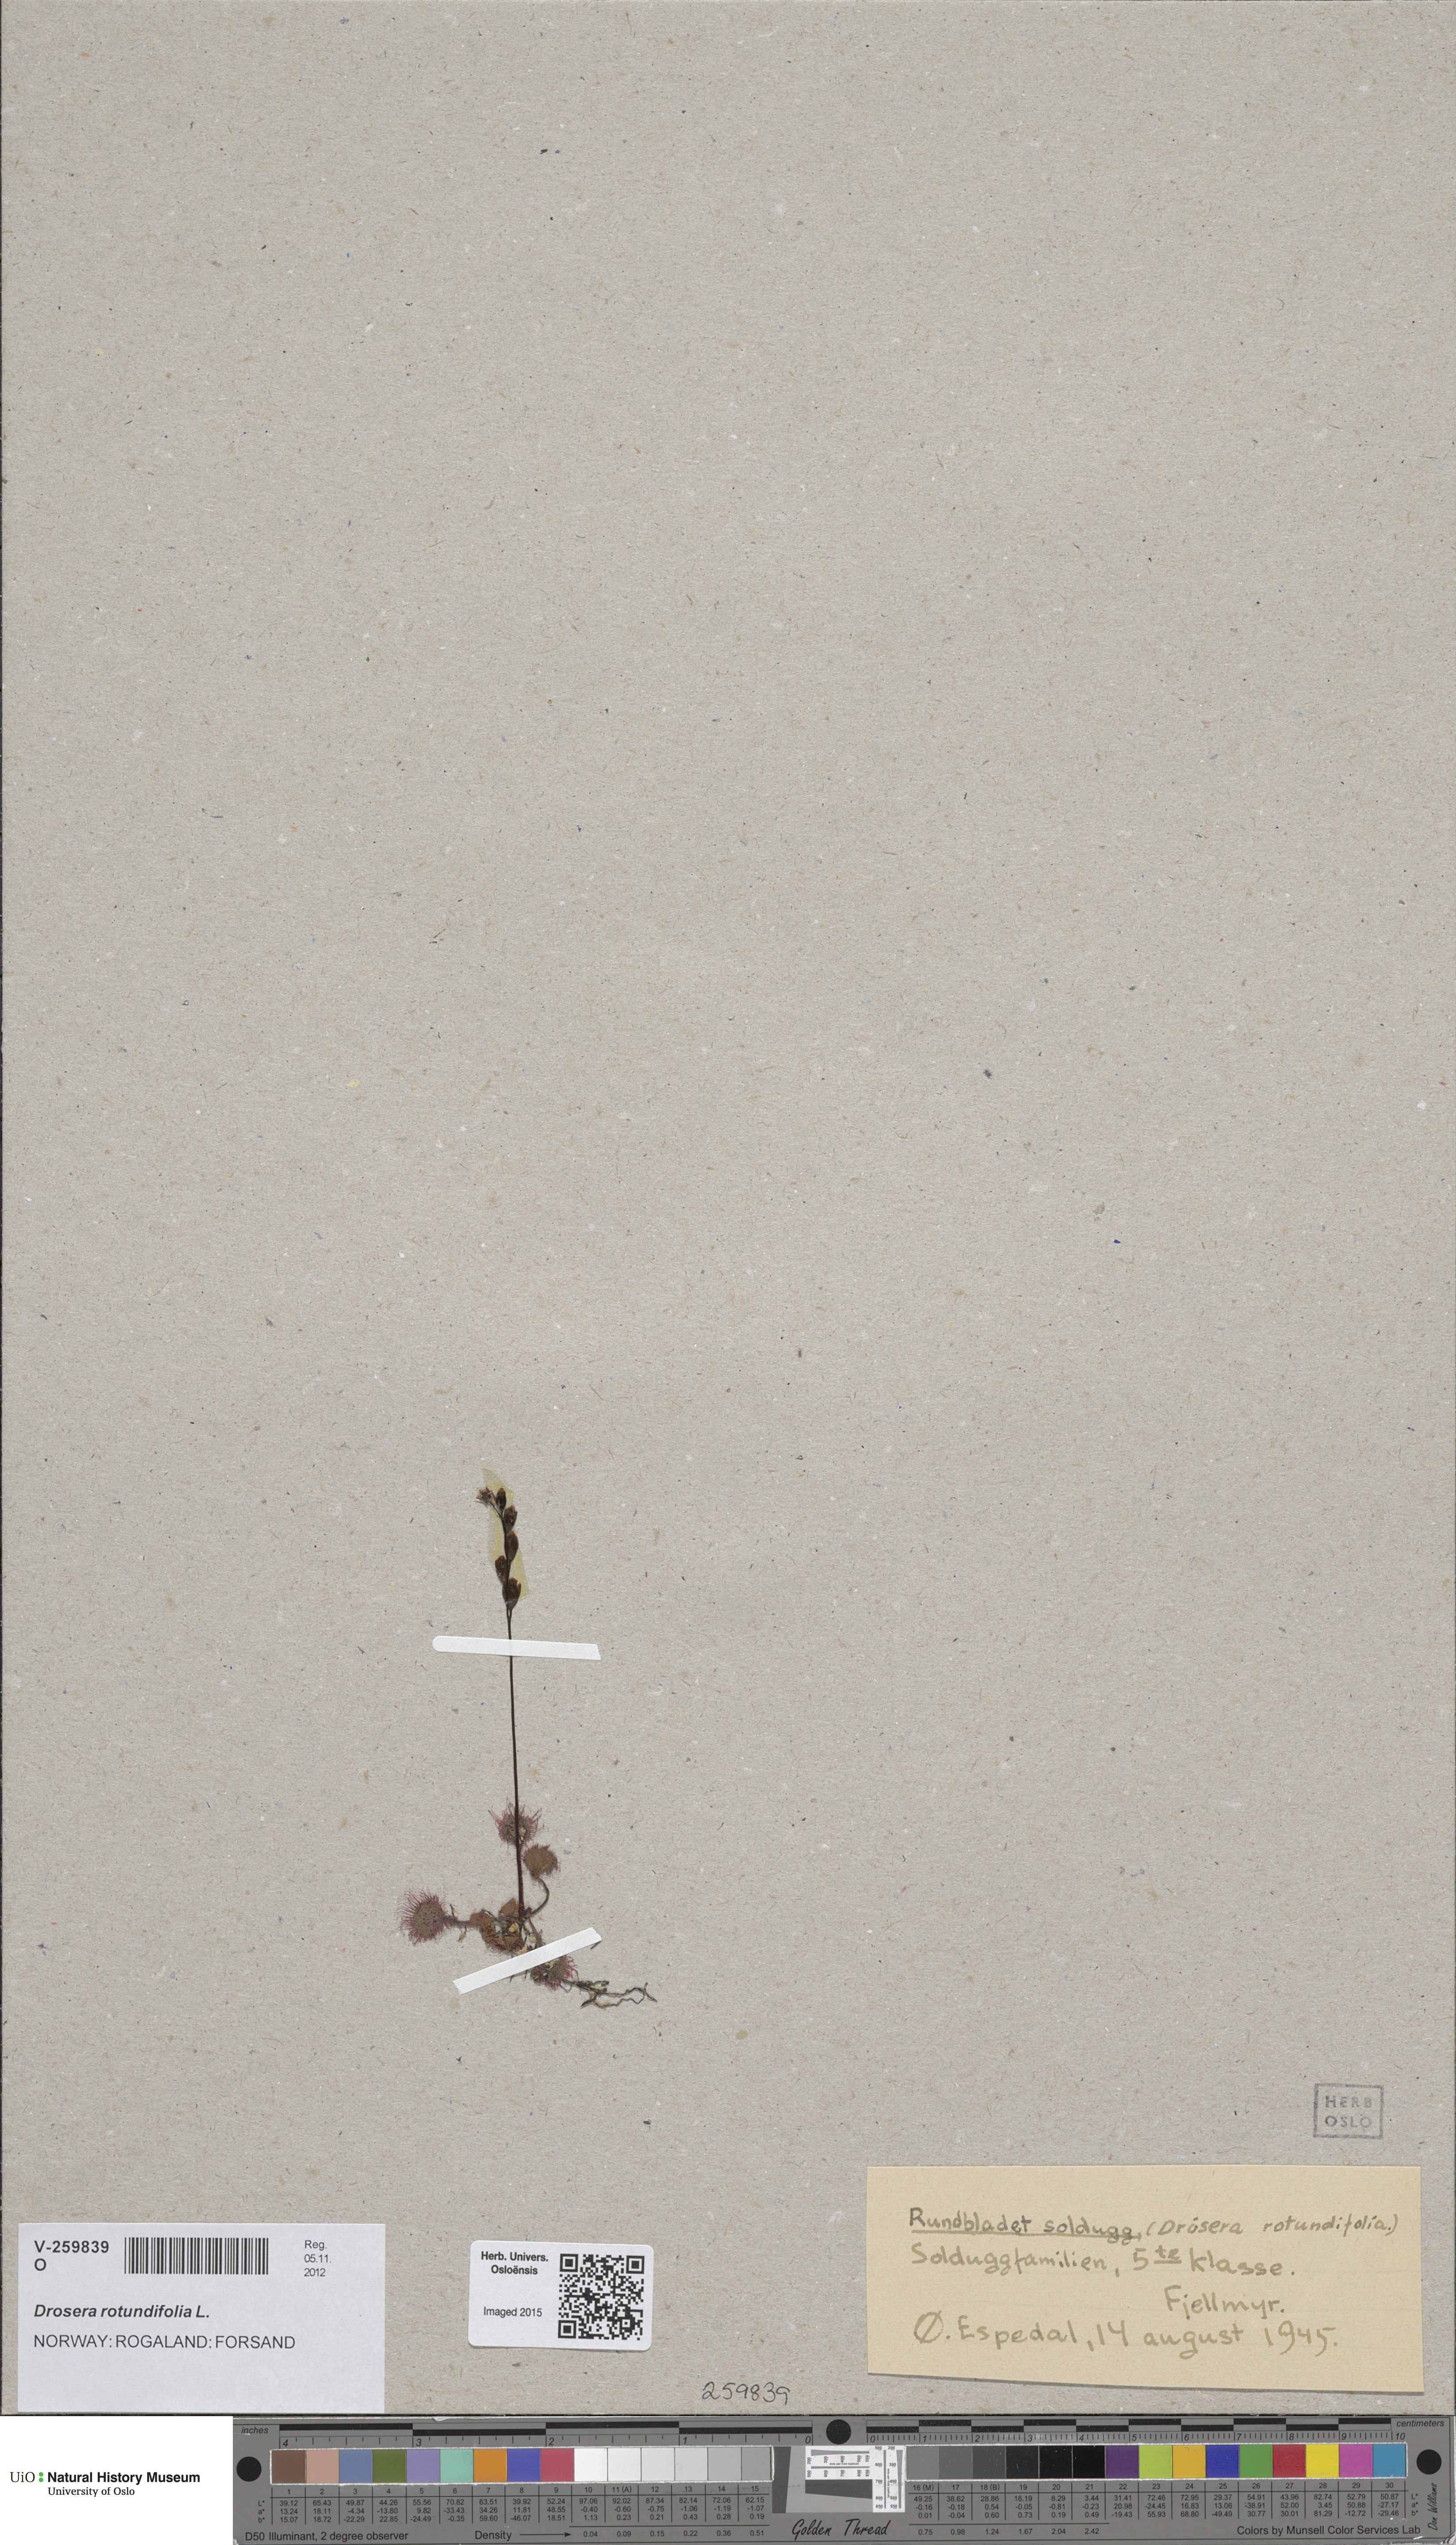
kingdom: Plantae
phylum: Tracheophyta
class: Magnoliopsida
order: Caryophyllales
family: Droseraceae
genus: Drosera
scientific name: Drosera rotundifolia
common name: Round-leaved sundew
